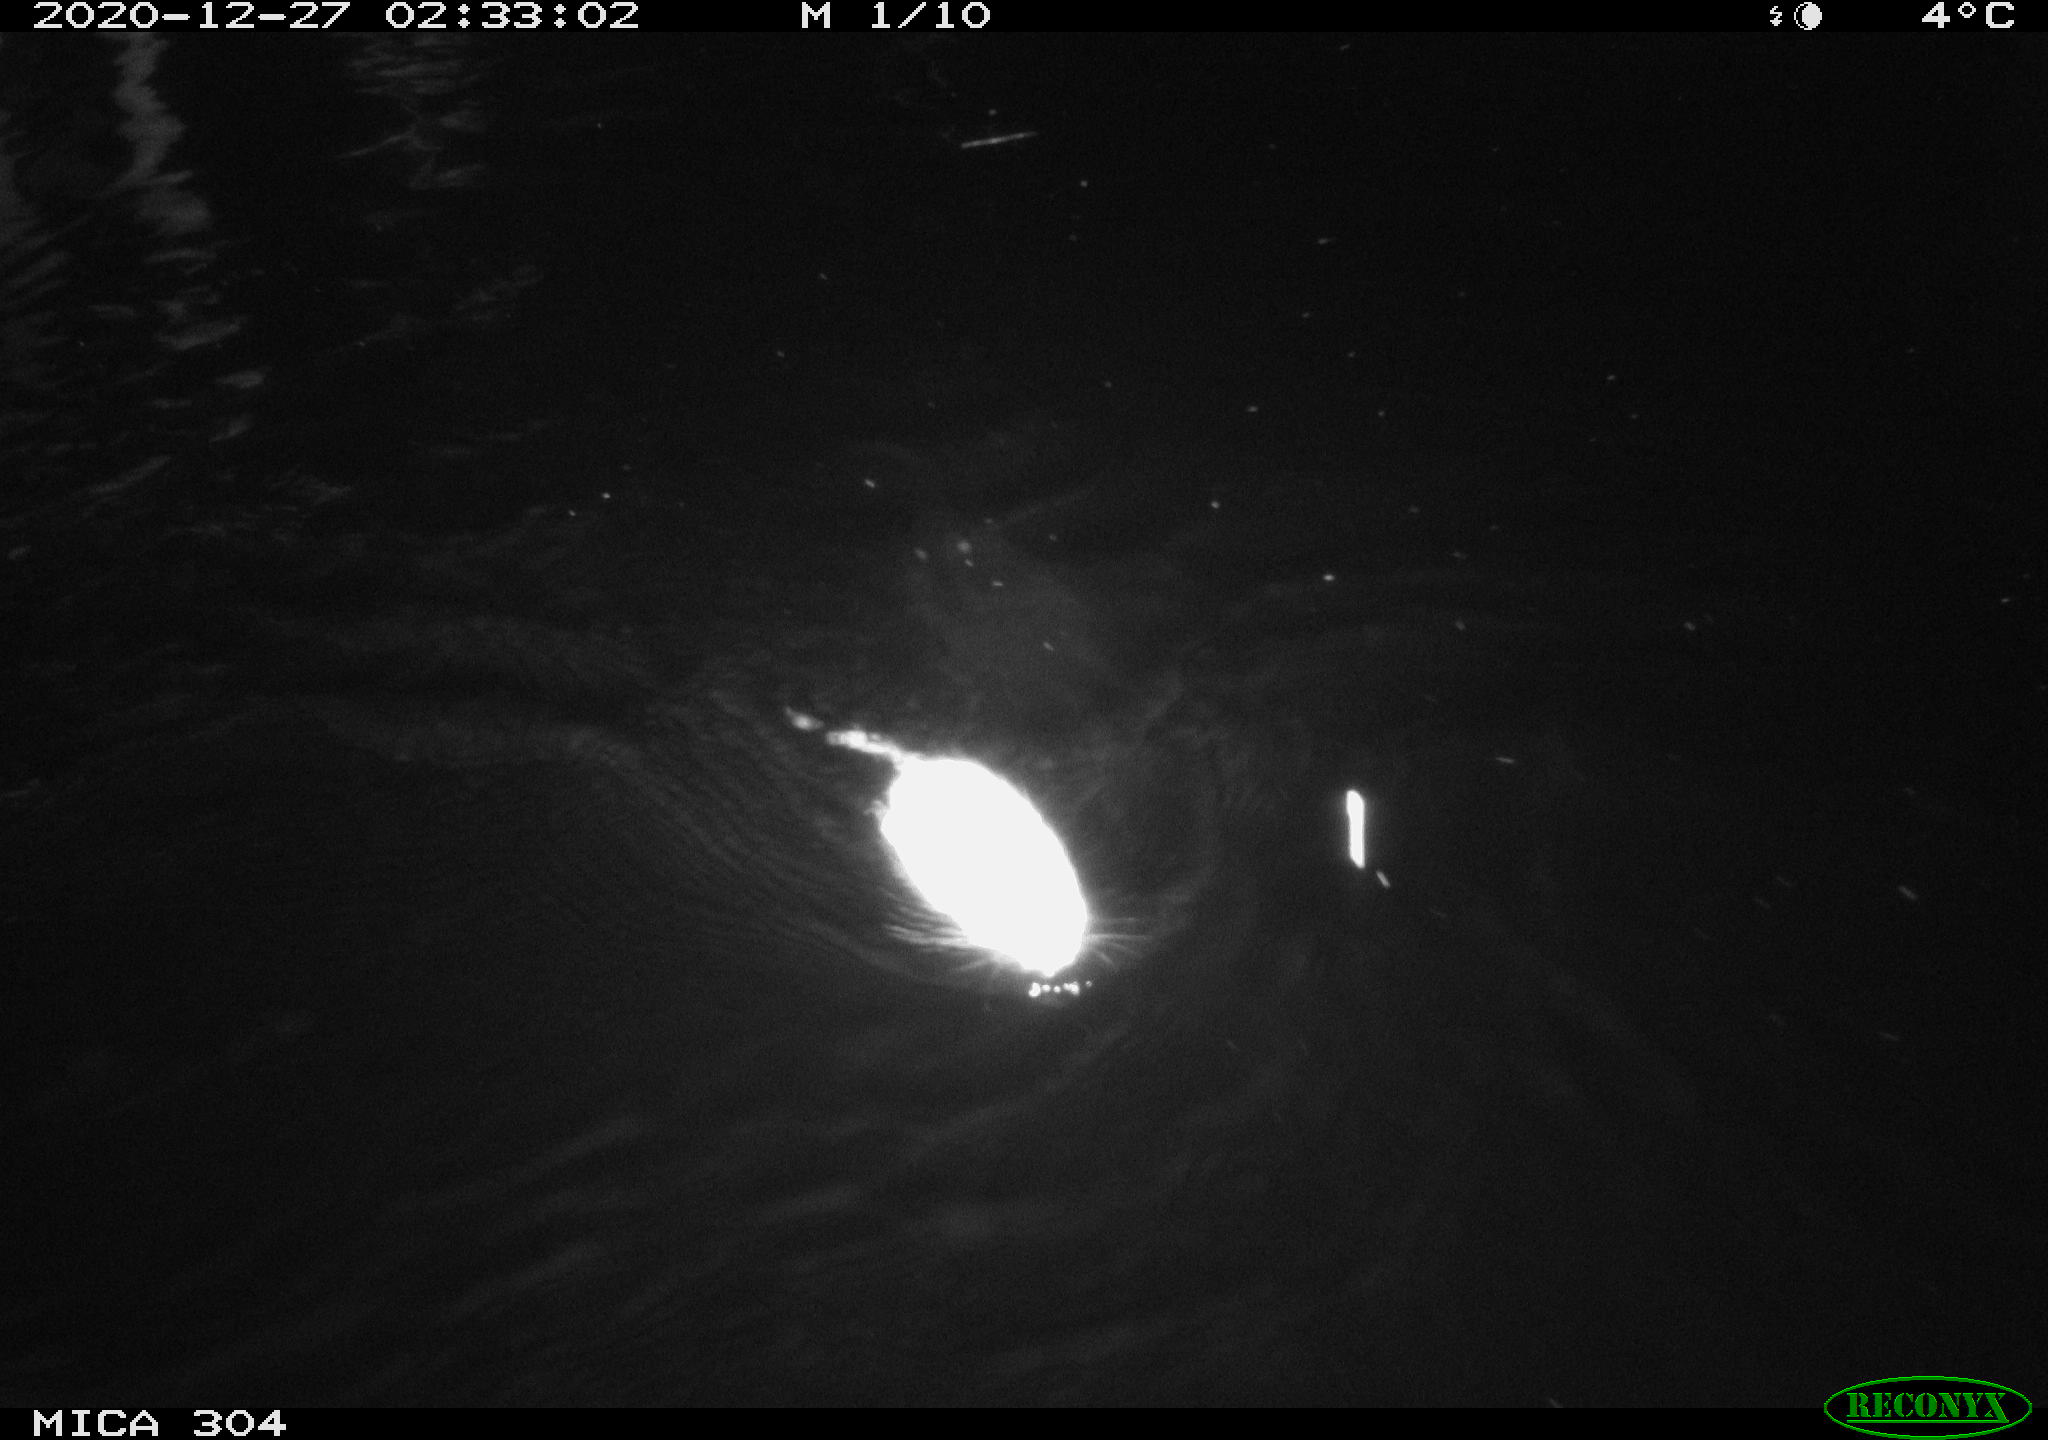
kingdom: Animalia
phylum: Chordata
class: Mammalia
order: Rodentia
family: Cricetidae
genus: Ondatra
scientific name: Ondatra zibethicus
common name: Muskrat
